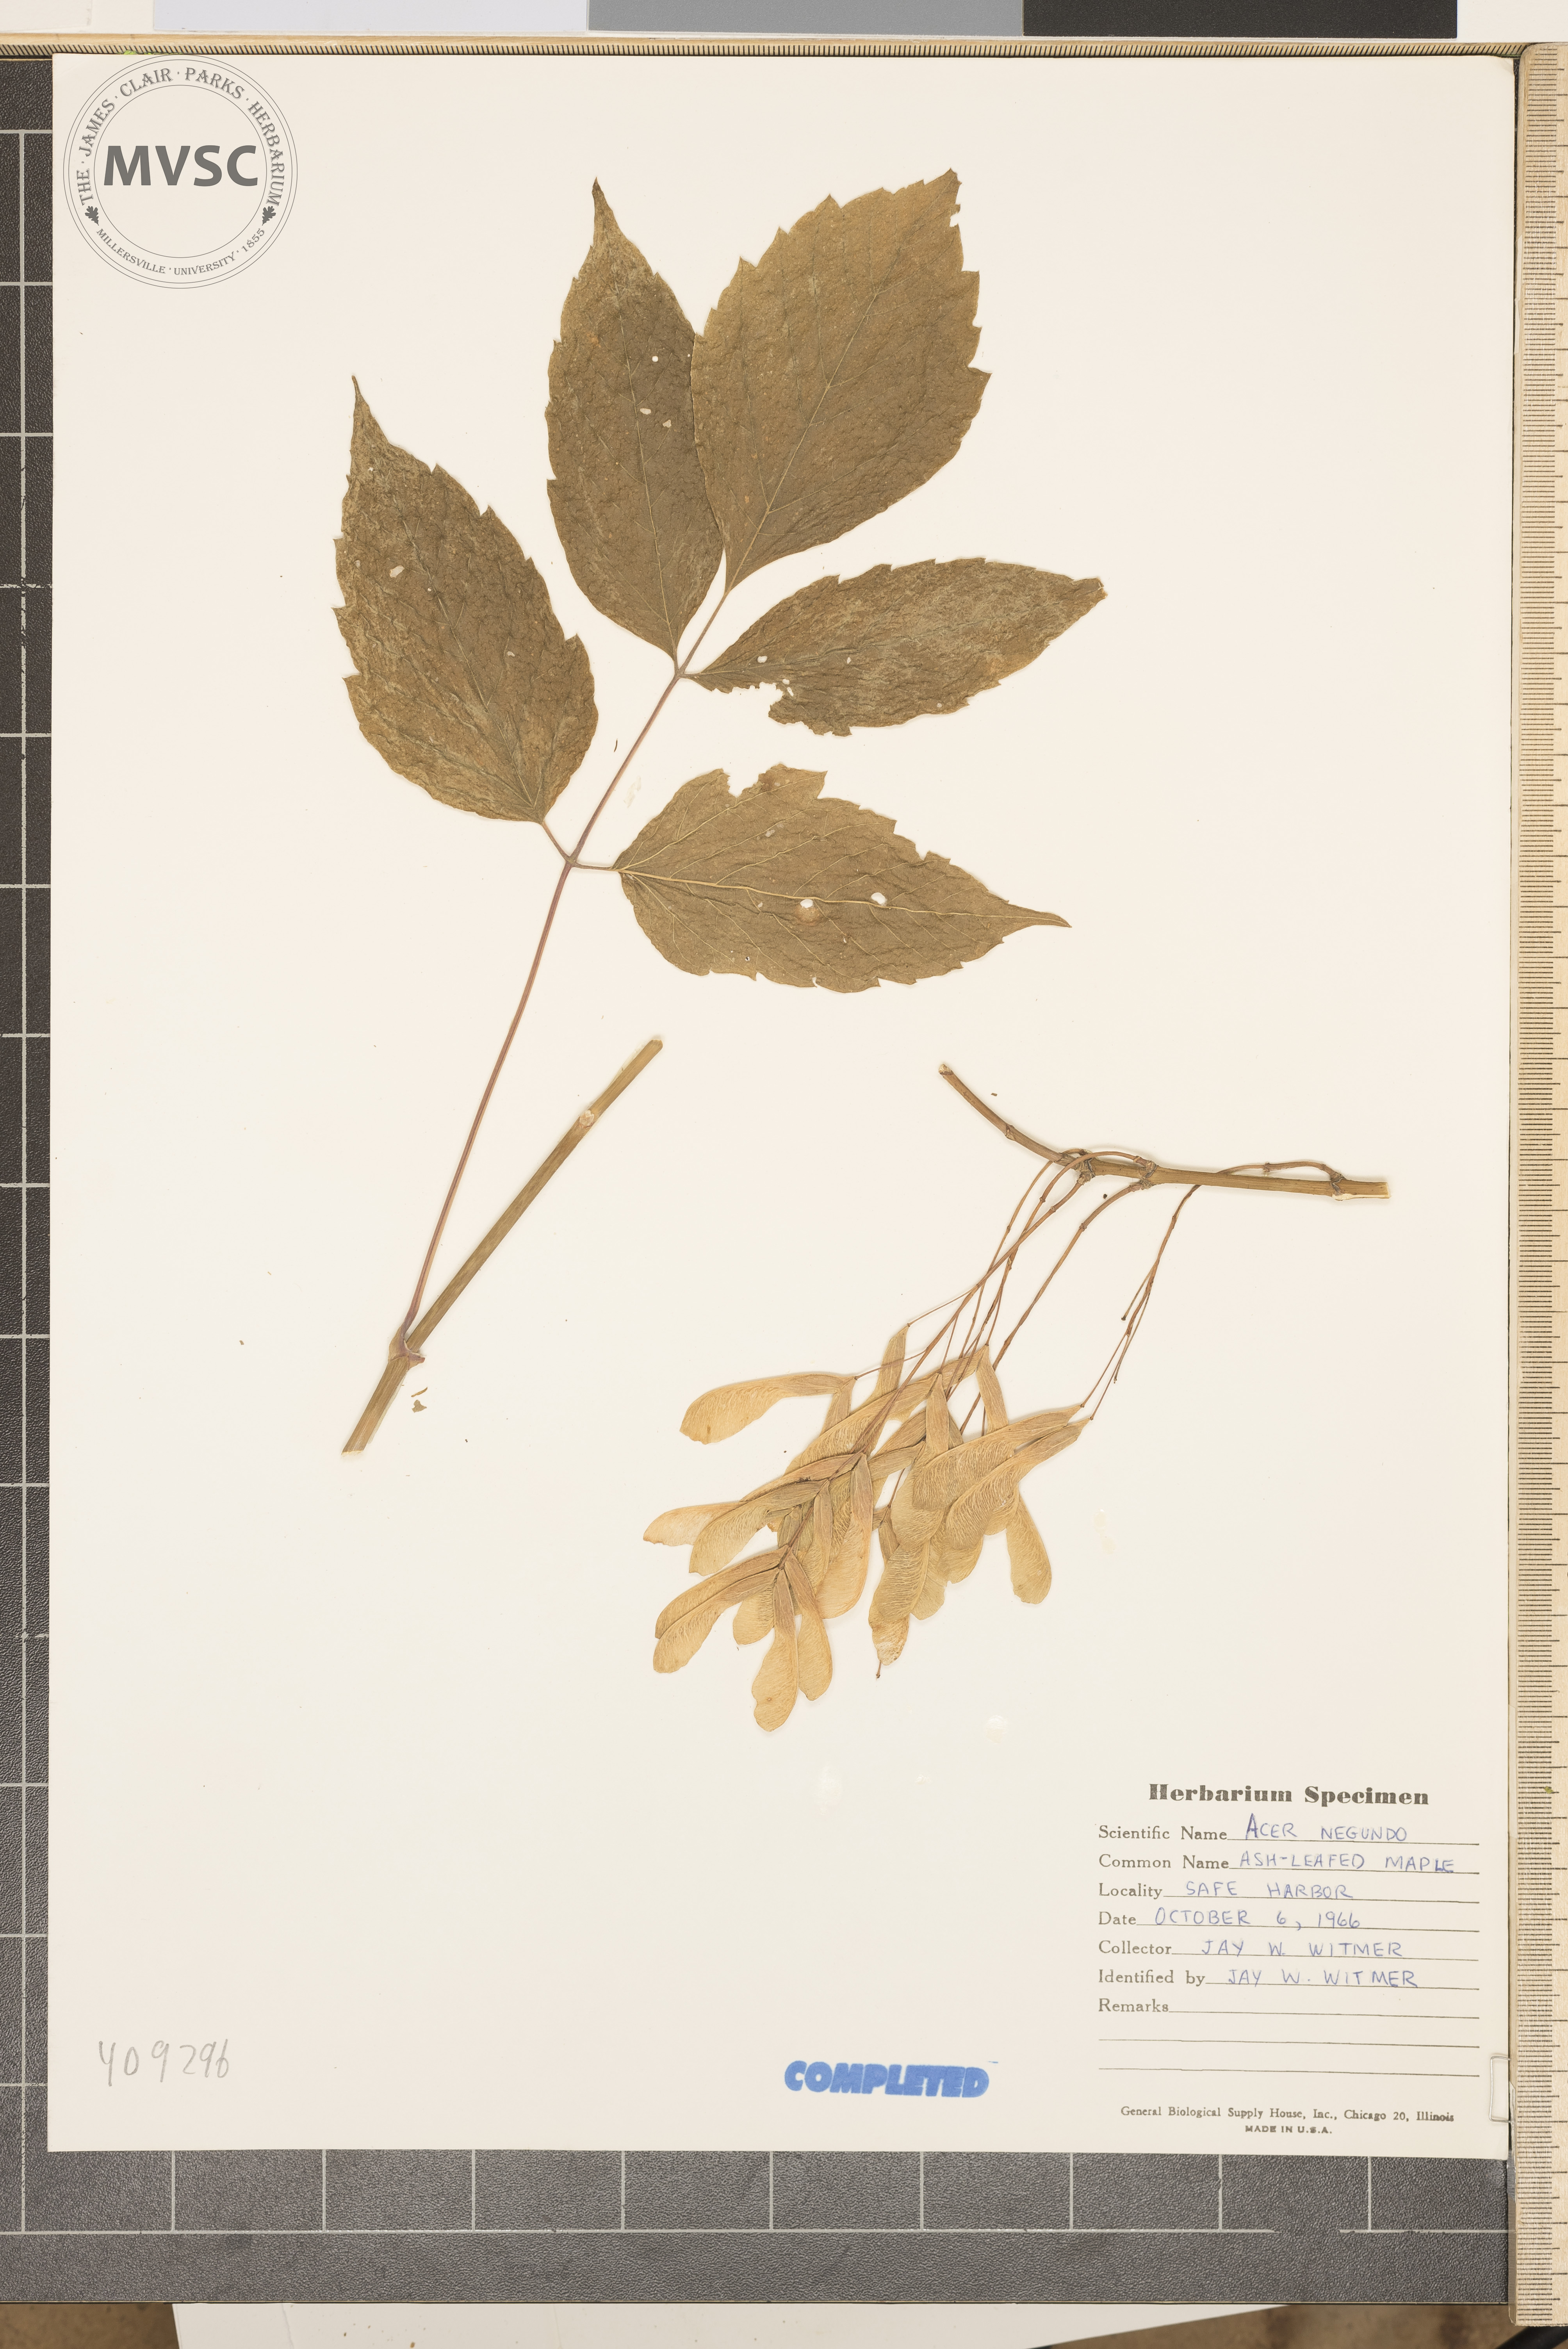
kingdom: Plantae
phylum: Tracheophyta
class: Magnoliopsida
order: Sapindales
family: Sapindaceae
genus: Acer
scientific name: Acer negundo
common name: box-elder
